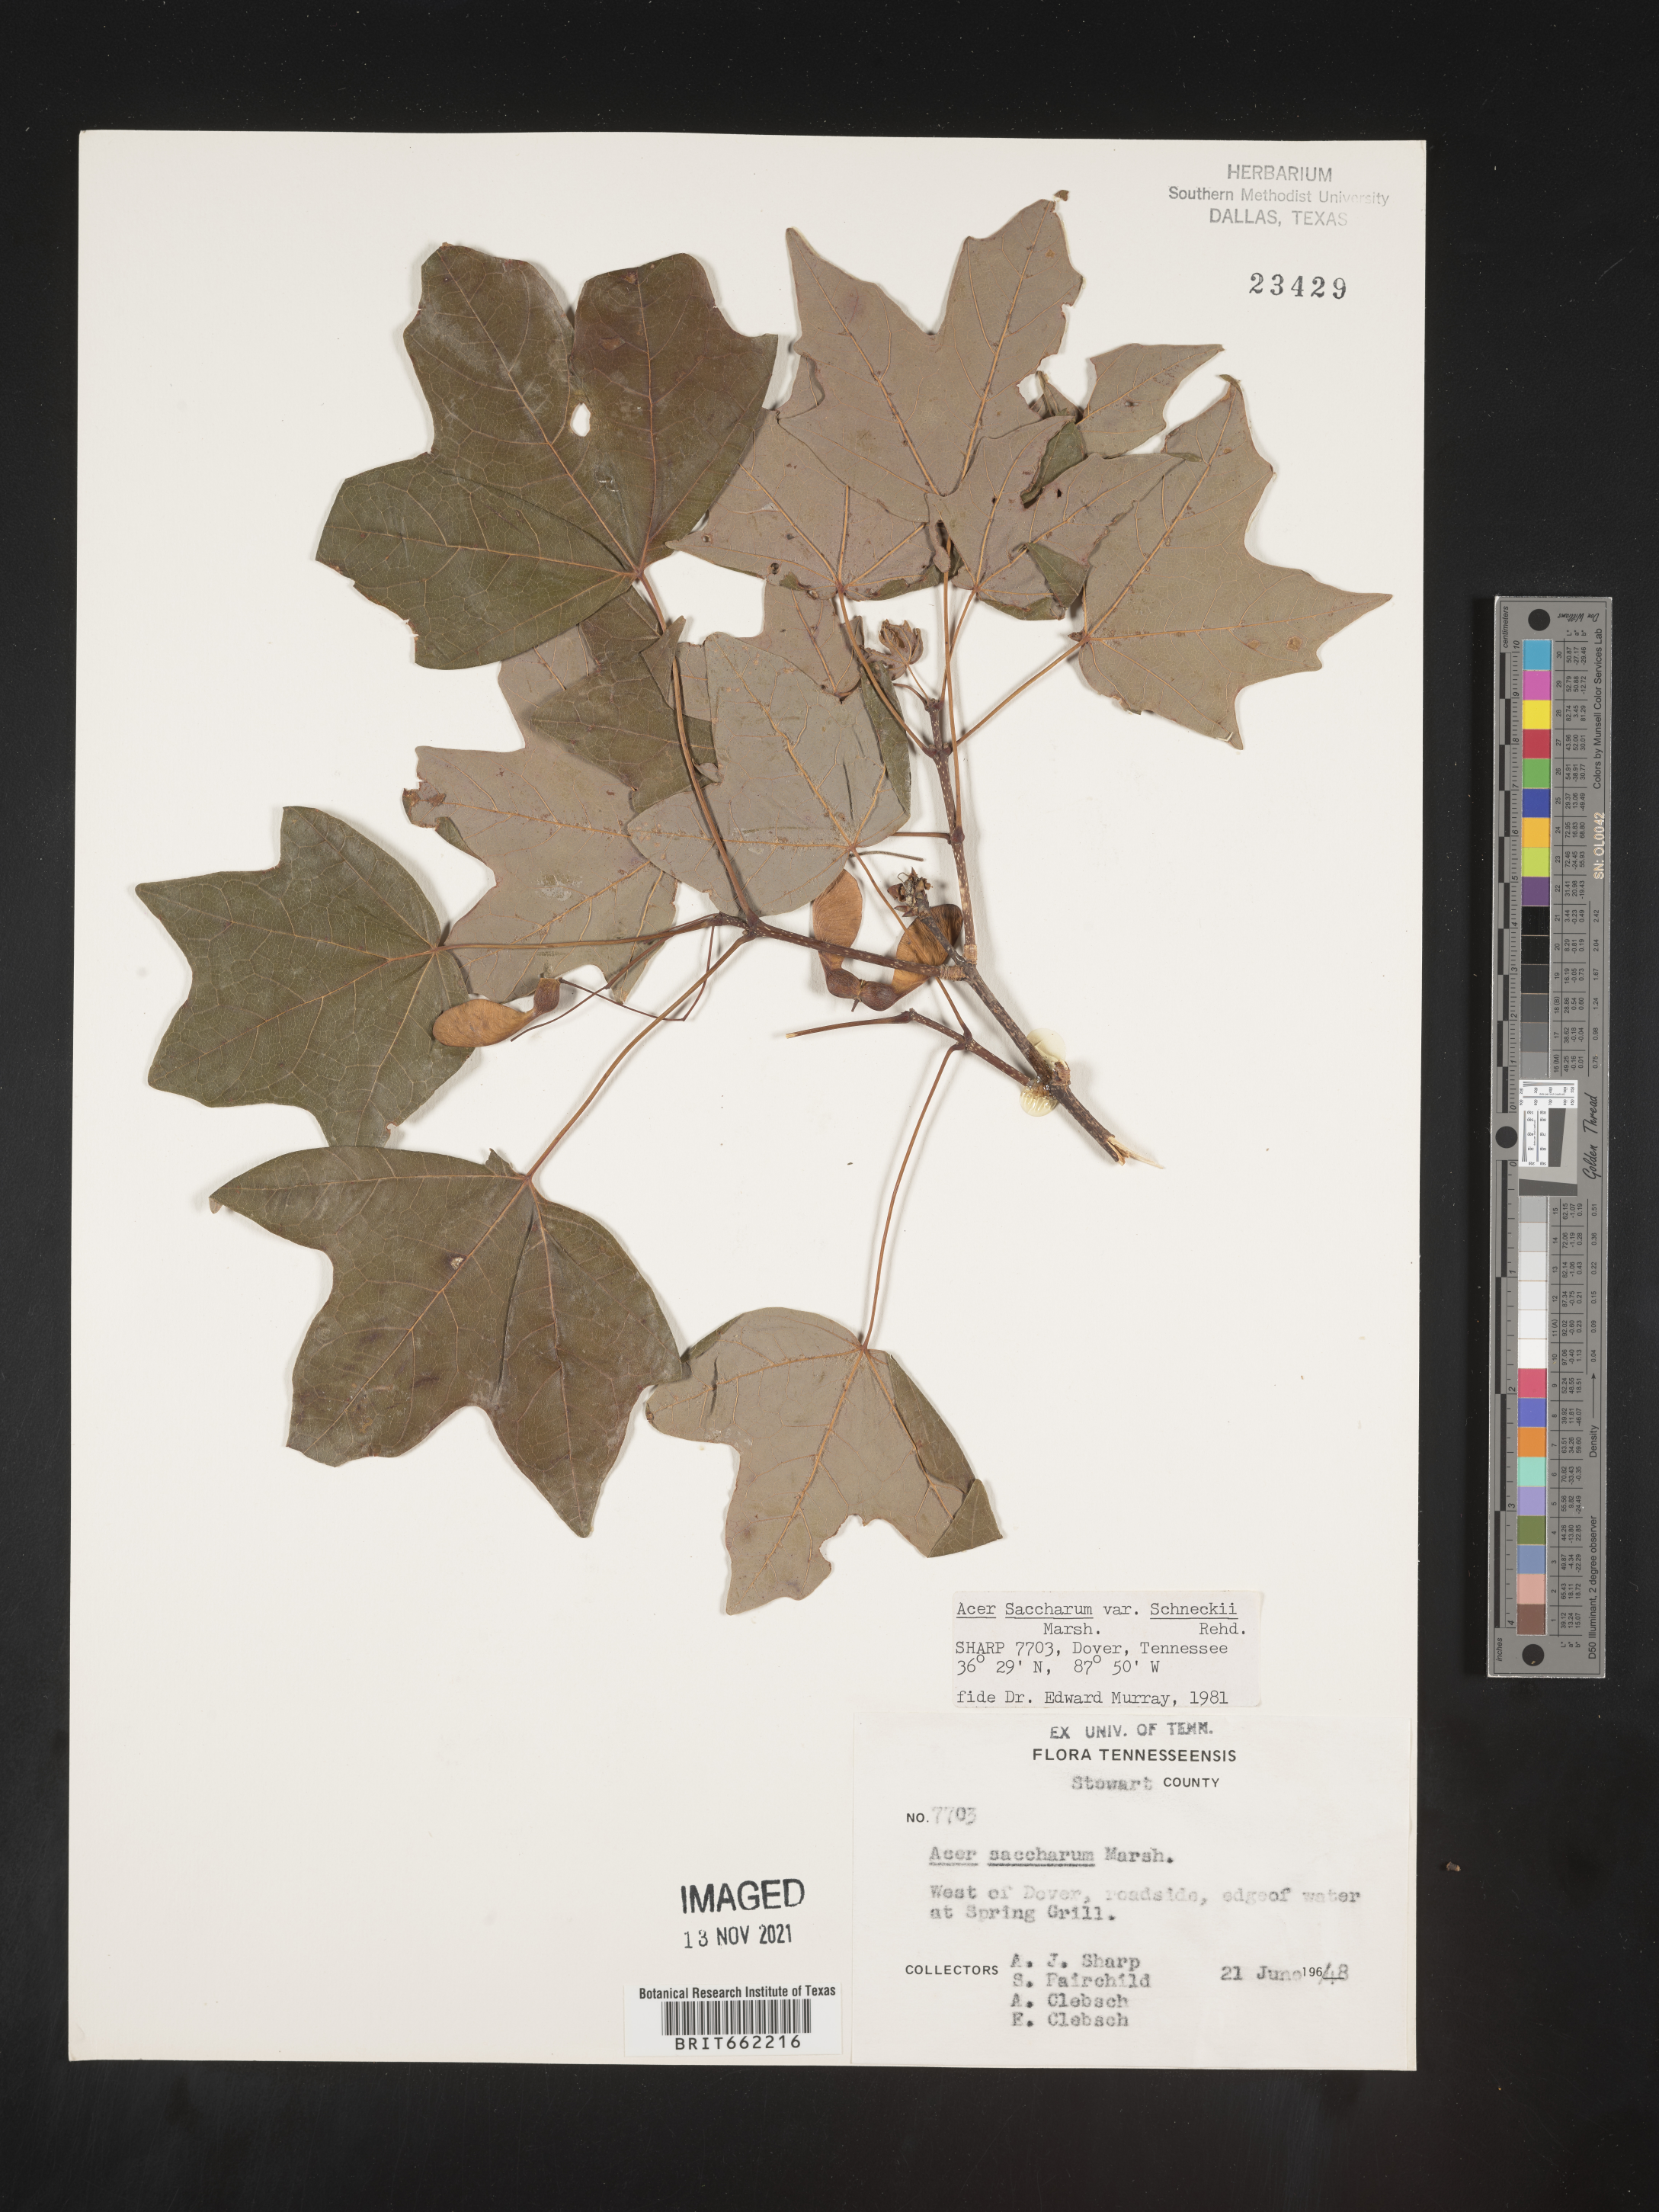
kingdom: Plantae
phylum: Tracheophyta
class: Magnoliopsida
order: Sapindales
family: Sapindaceae
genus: Acer
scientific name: Acer saccharum
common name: Sugar maple
